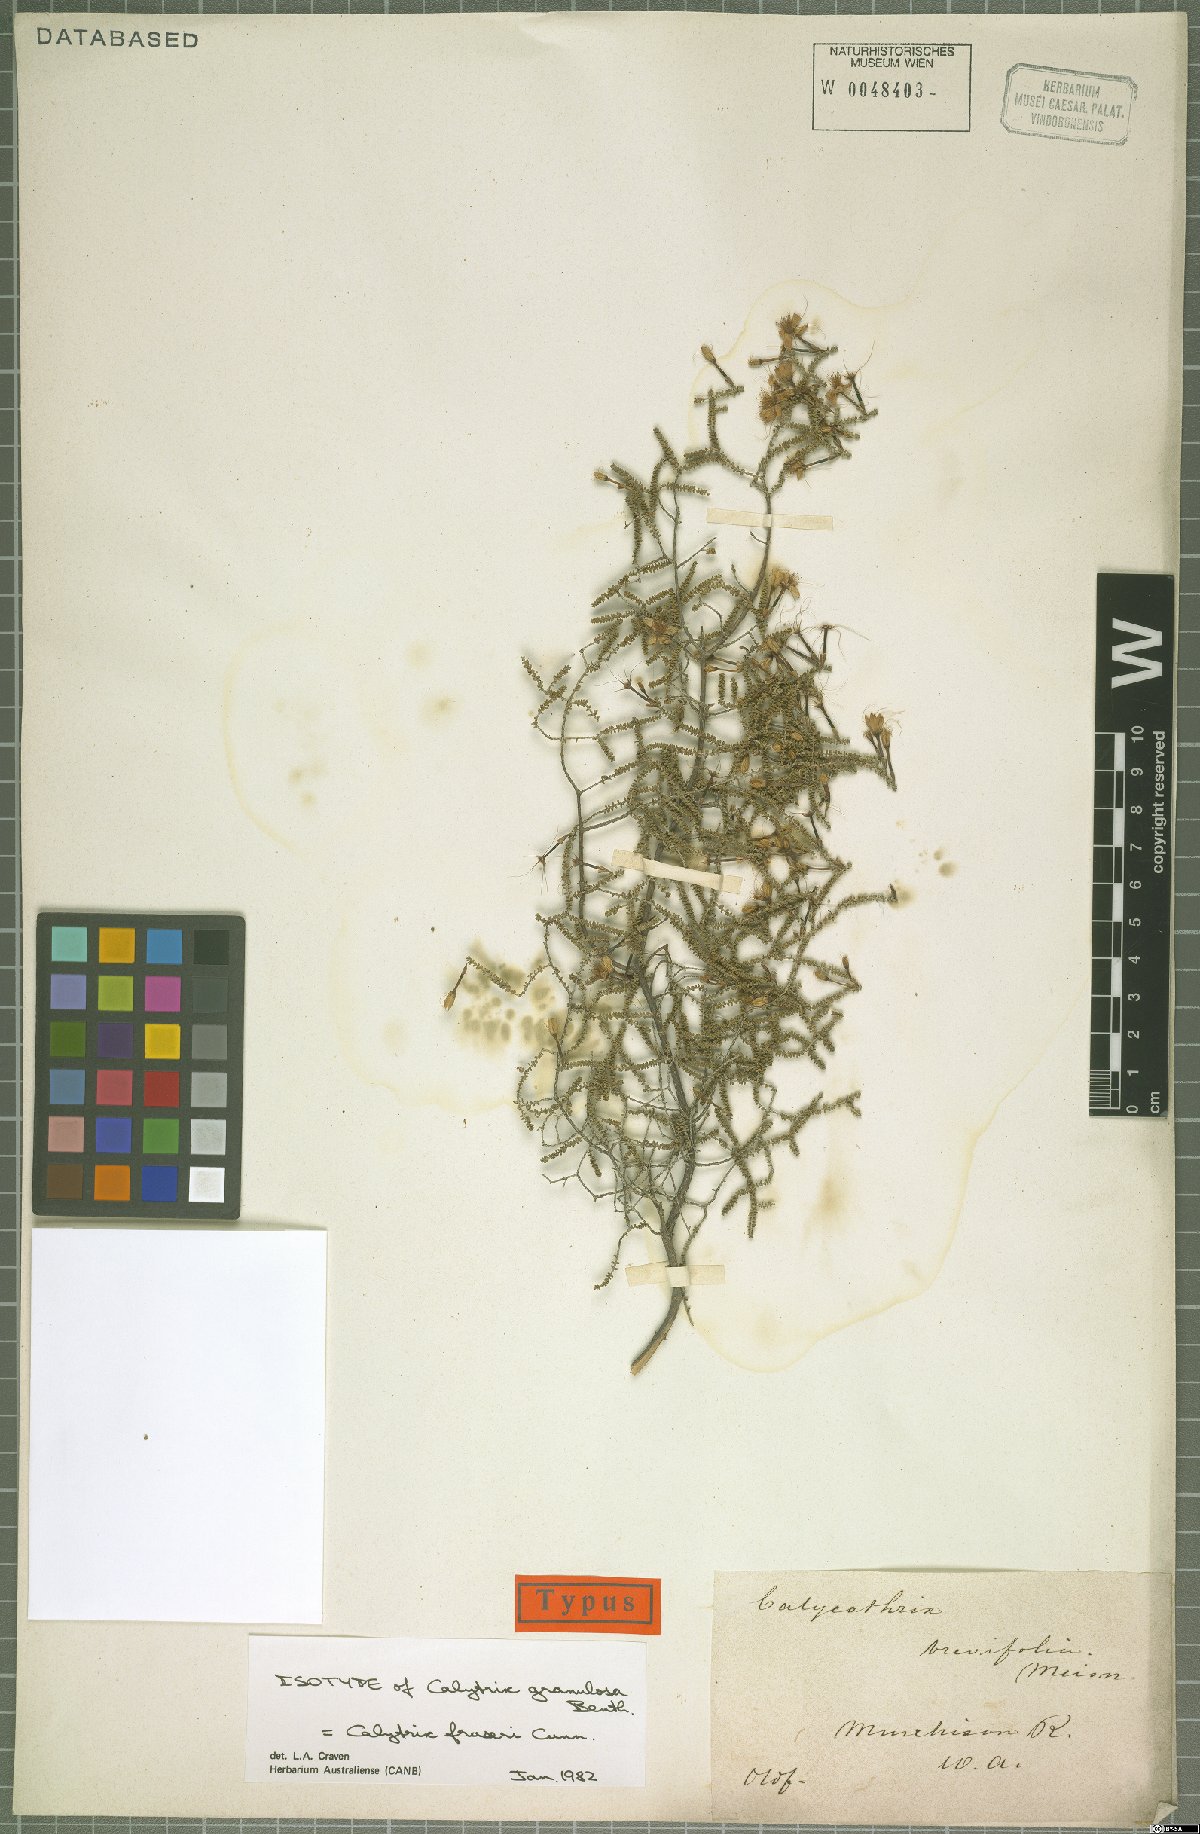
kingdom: Plantae
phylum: Tracheophyta
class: Magnoliopsida
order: Myrtales
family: Myrtaceae
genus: Calytrix
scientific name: Calytrix fraseri
